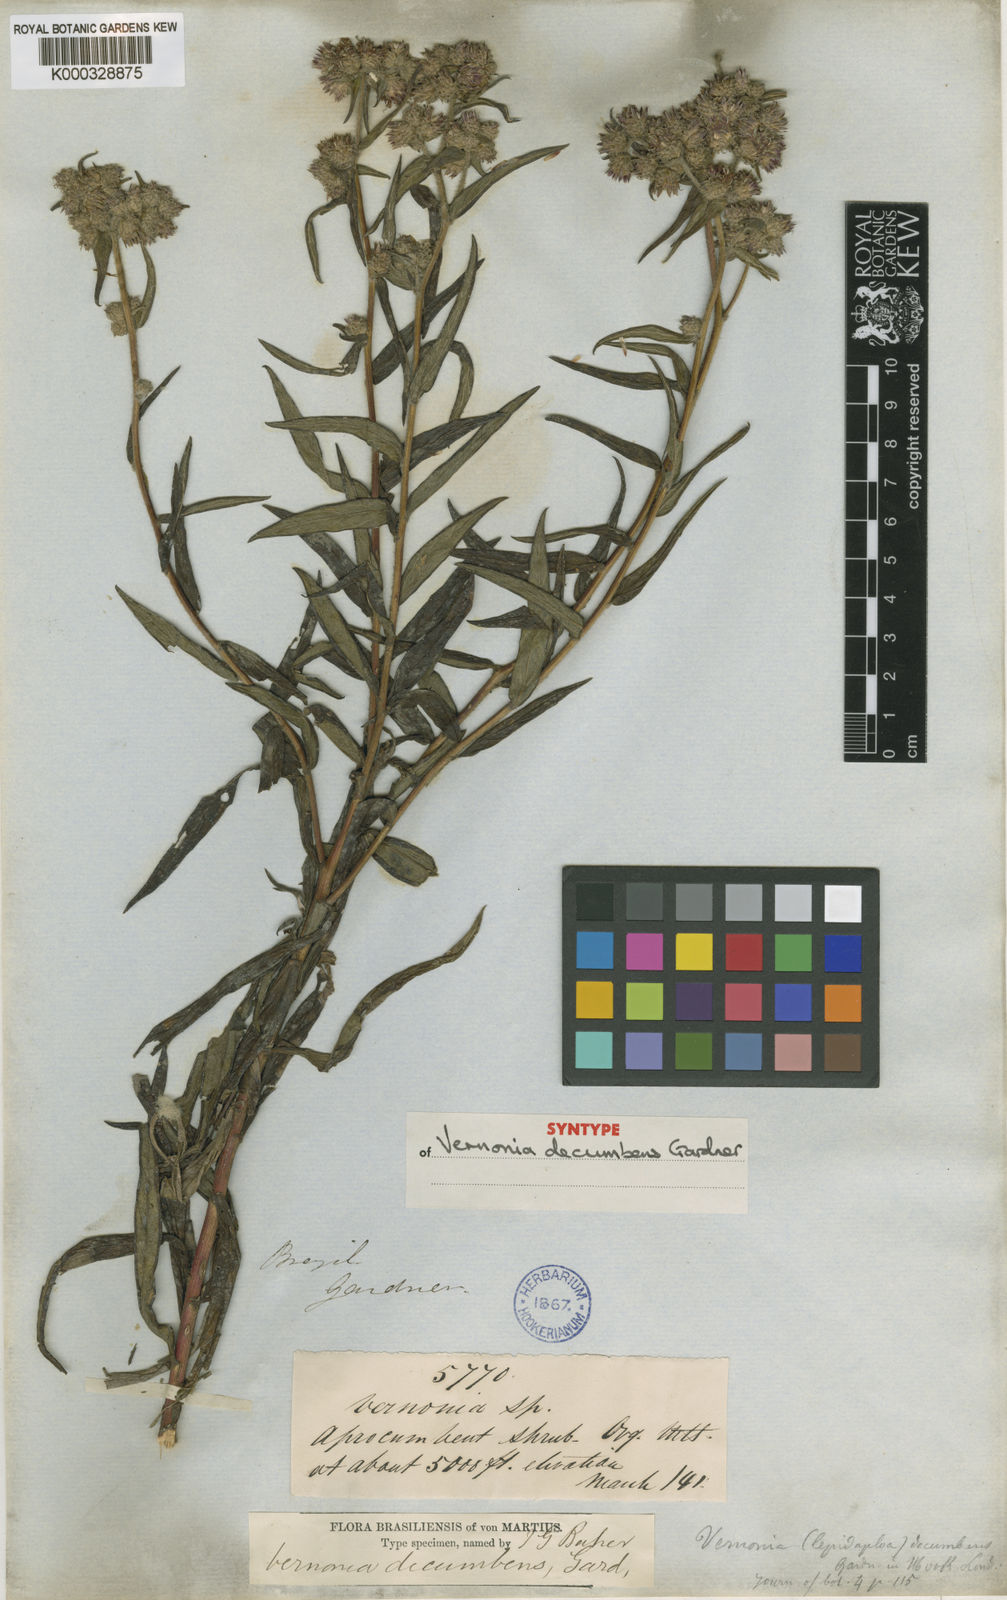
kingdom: Plantae
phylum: Tracheophyta
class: Magnoliopsida
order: Asterales
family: Asteraceae
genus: Lepidaploa
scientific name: Lepidaploa decumbens
